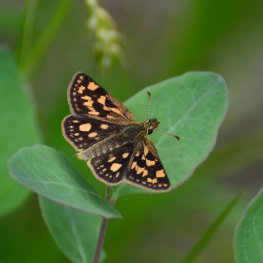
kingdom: Animalia
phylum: Arthropoda
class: Insecta
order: Lepidoptera
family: Hesperiidae
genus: Carterocephalus
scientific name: Carterocephalus palaemon
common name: Chequered Skipper
